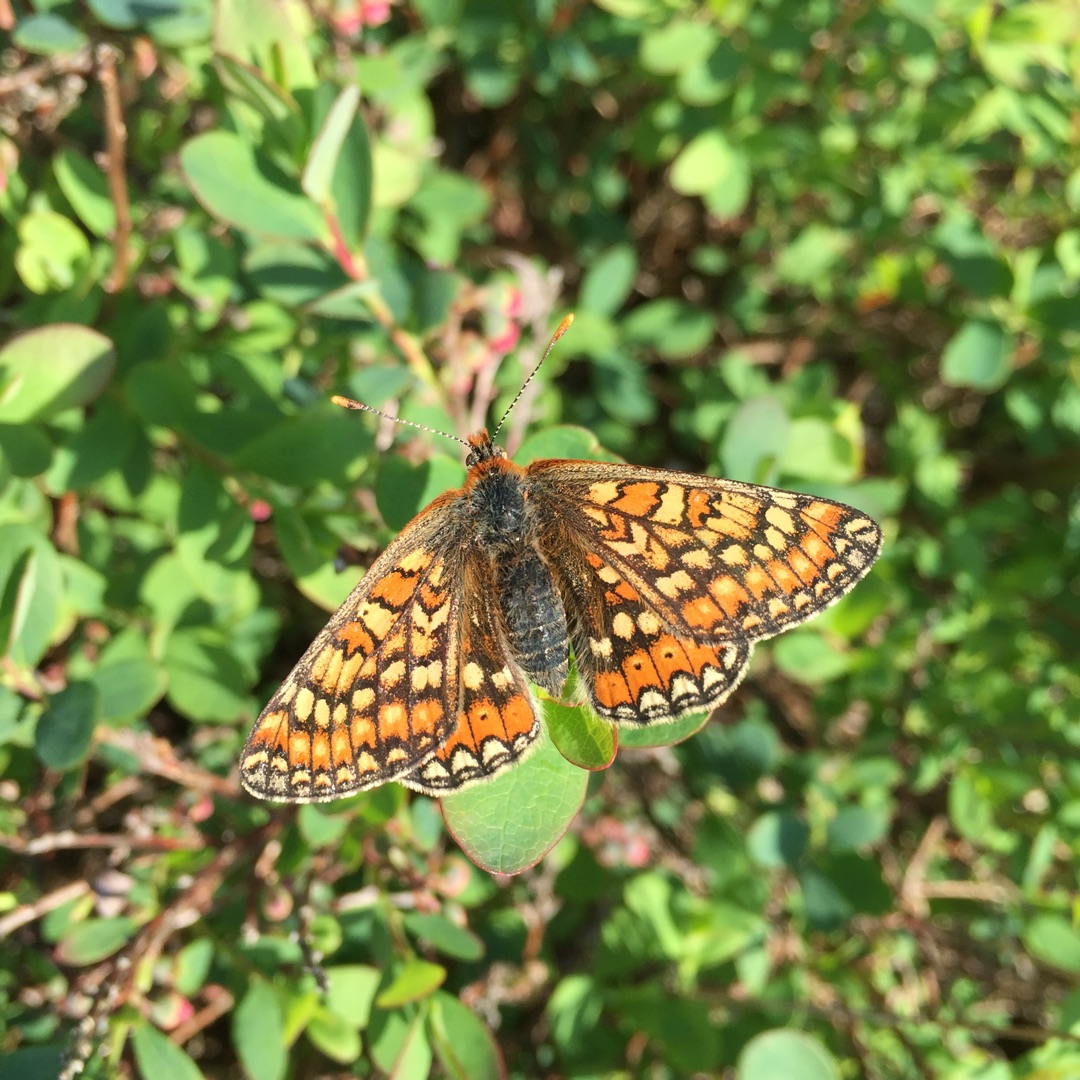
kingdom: Animalia
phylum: Arthropoda
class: Insecta
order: Lepidoptera
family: Nymphalidae
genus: Euphydryas
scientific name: Euphydryas aurinia
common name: Hedepletvinge
